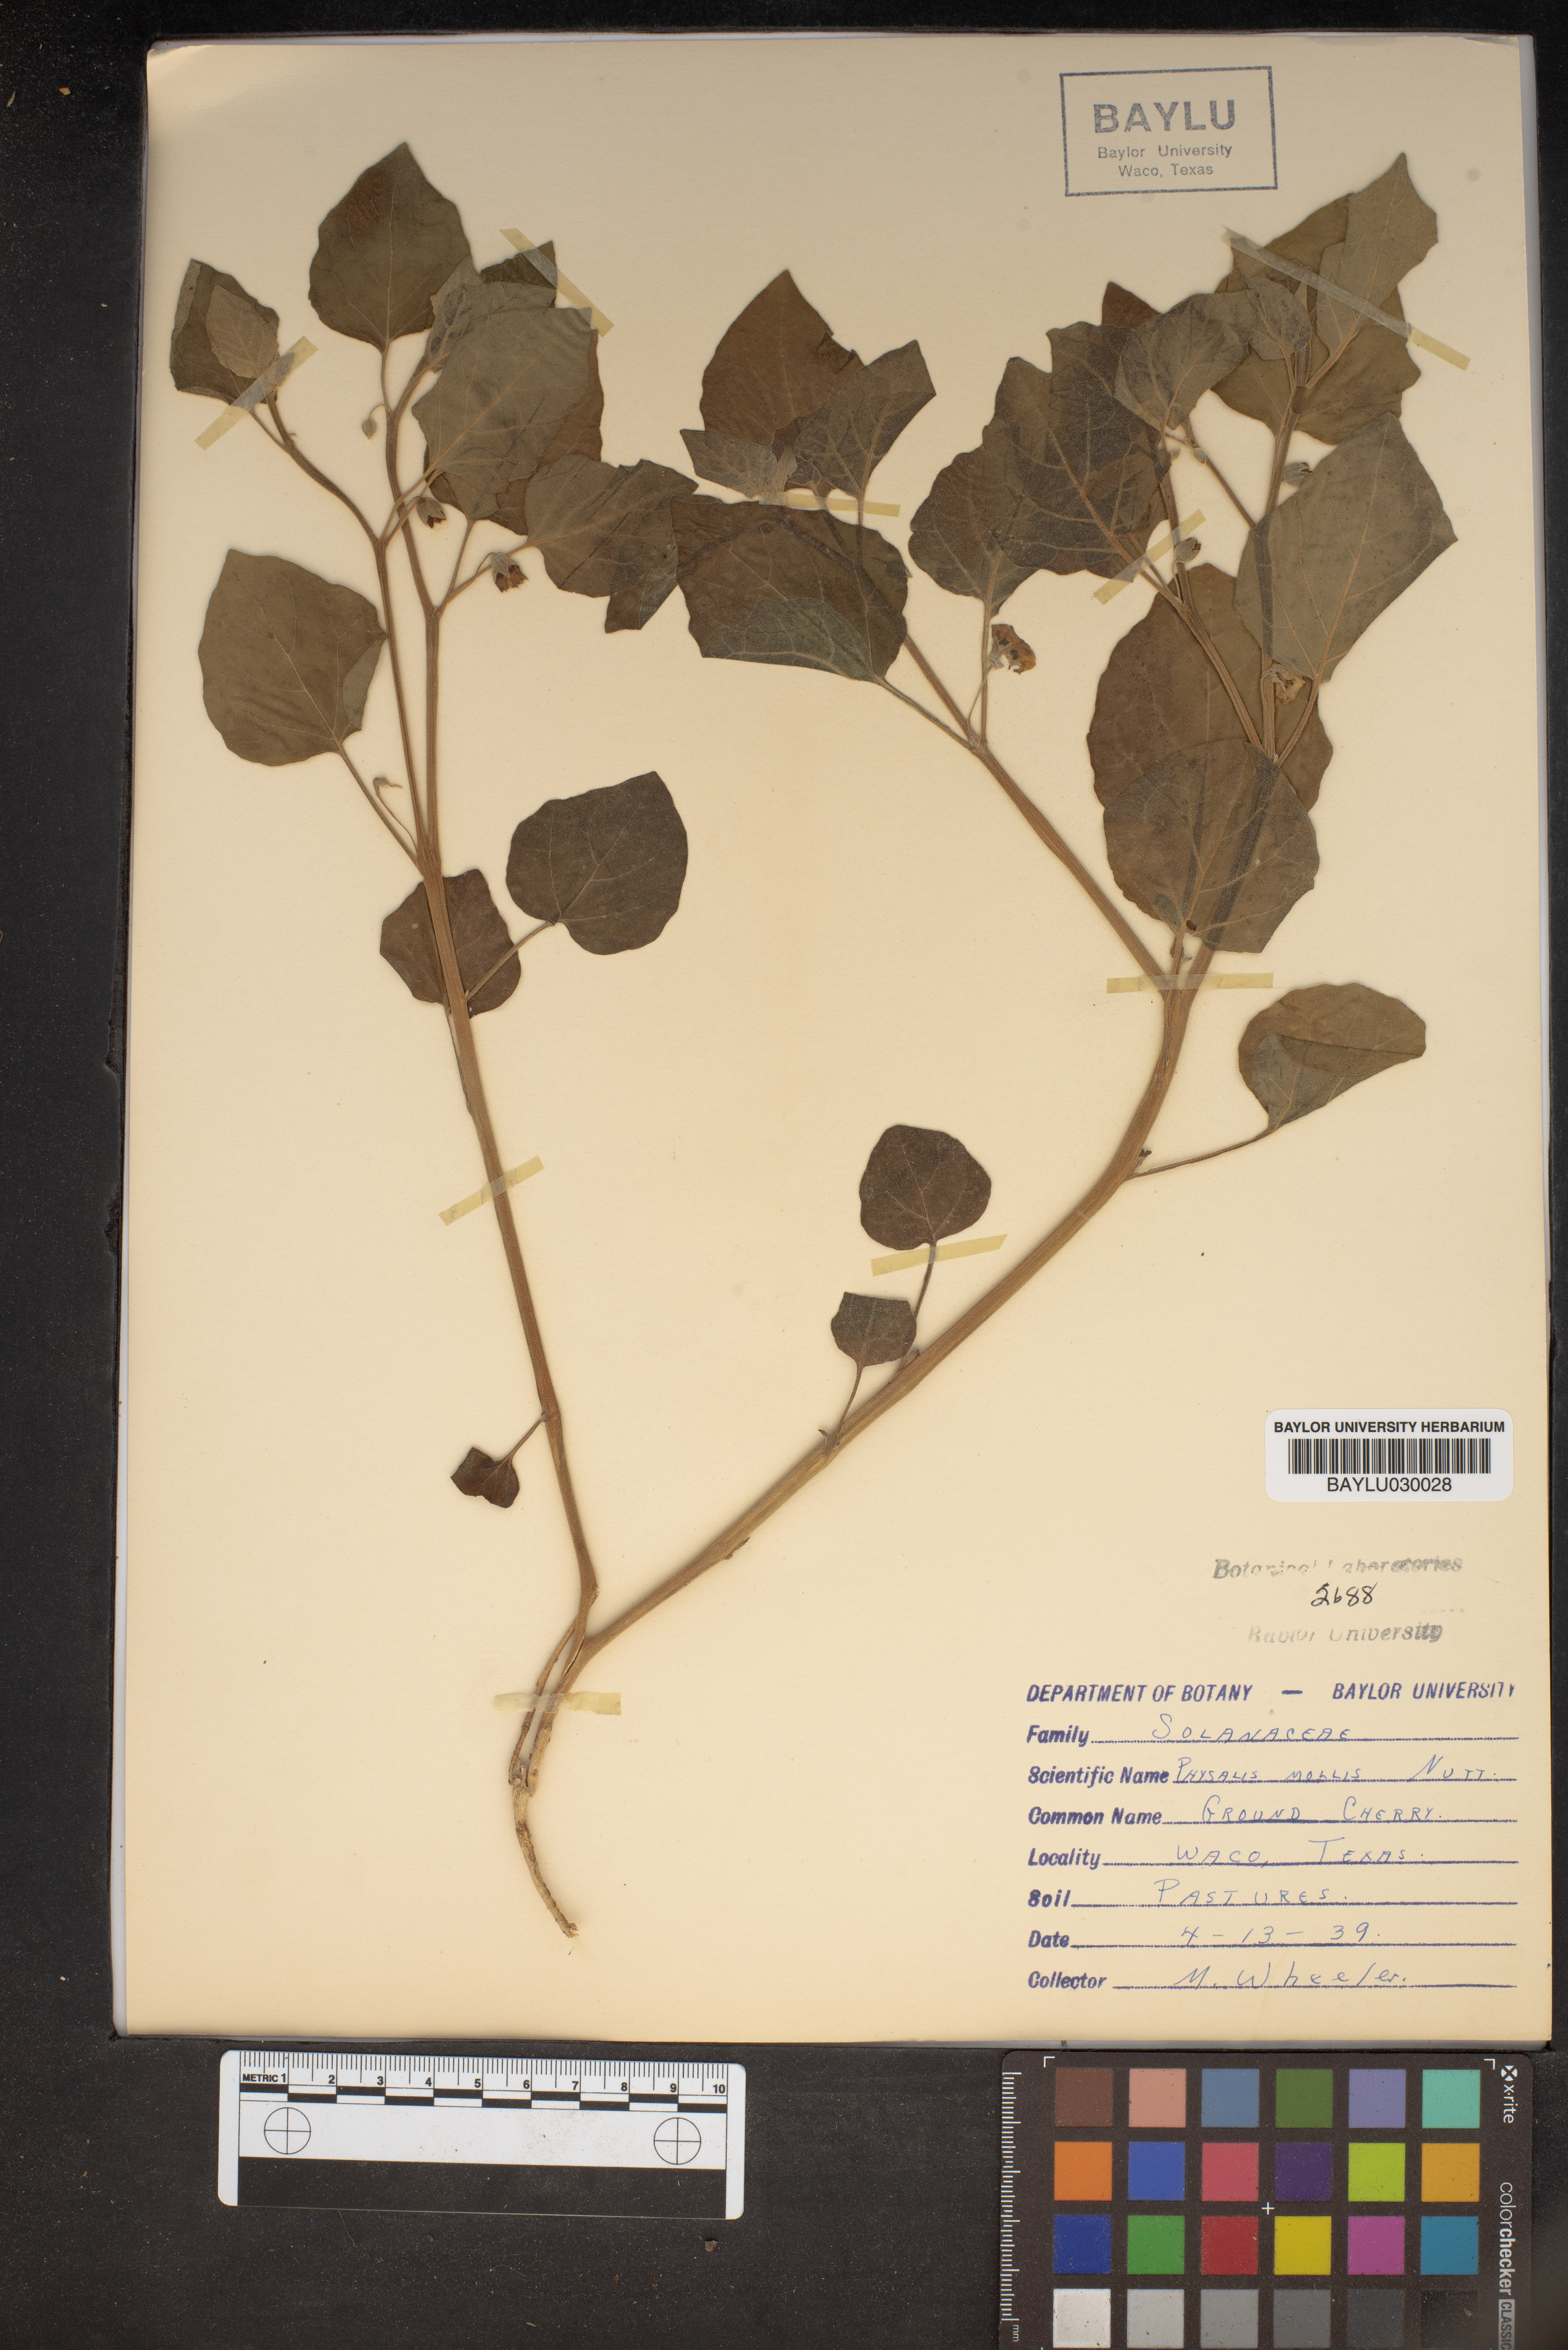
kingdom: Plantae
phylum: Tracheophyta
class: Magnoliopsida
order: Solanales
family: Solanaceae
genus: Physalis
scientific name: Physalis mollis
